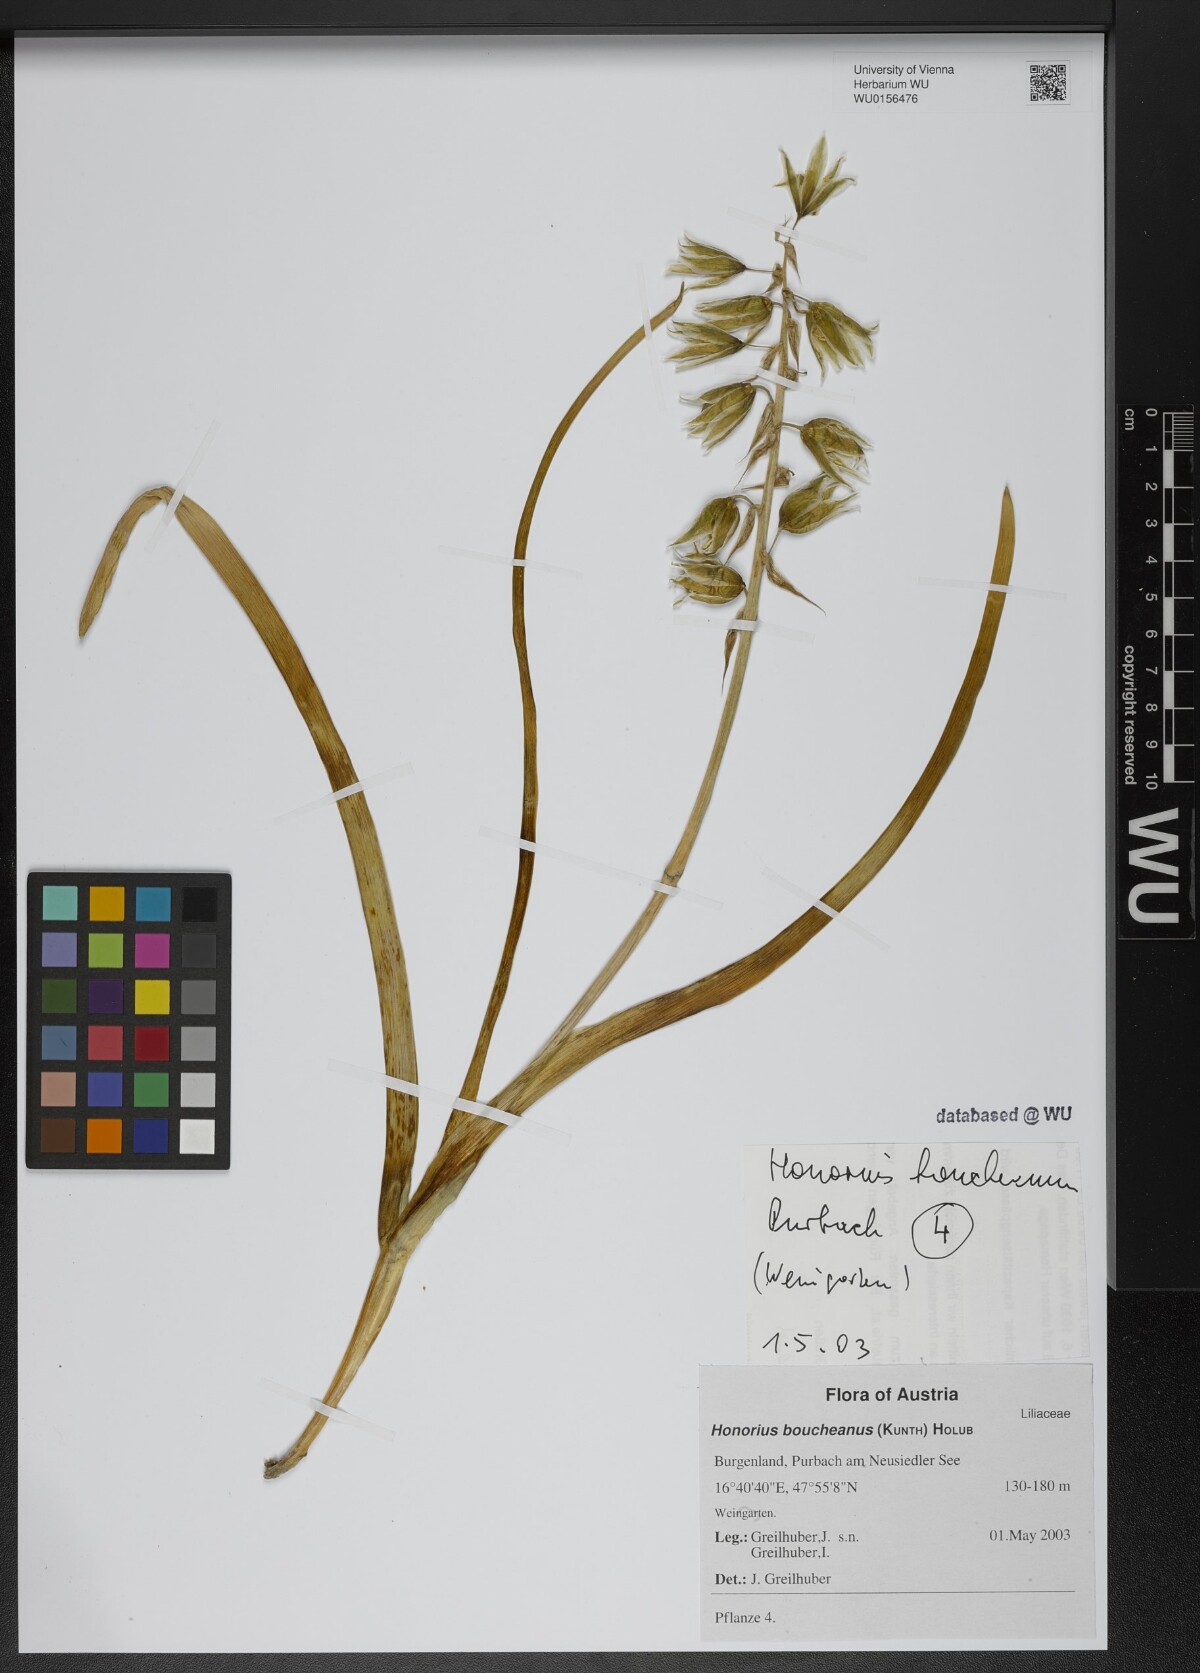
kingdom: Plantae
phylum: Tracheophyta
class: Liliopsida
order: Asparagales
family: Asparagaceae
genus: Ornithogalum
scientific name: Ornithogalum boucheanum
